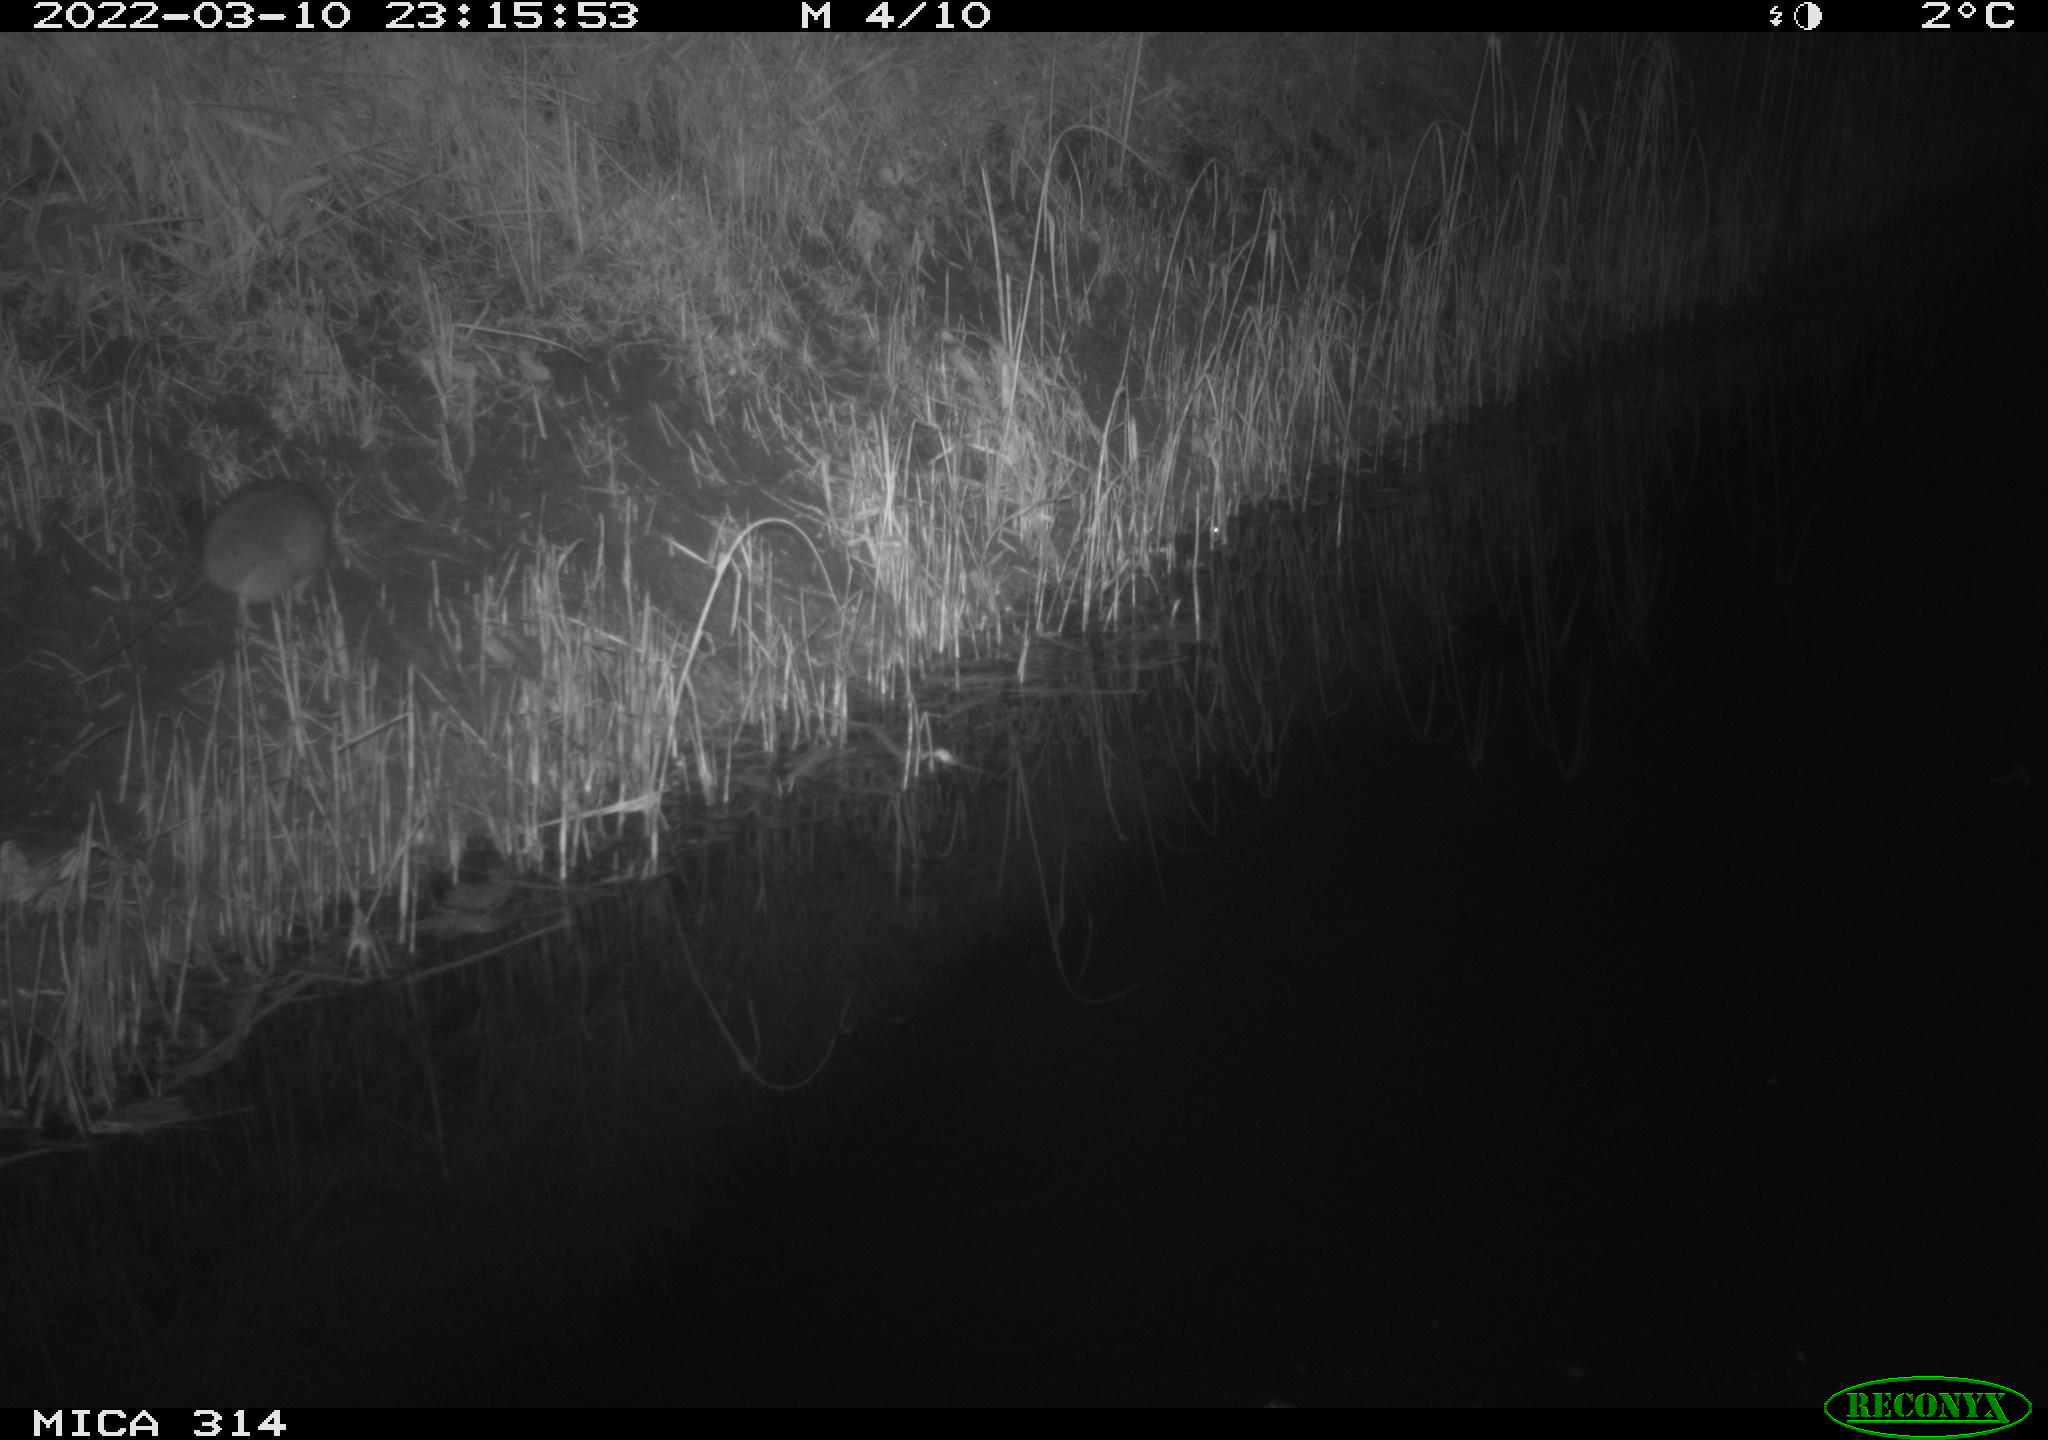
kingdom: Animalia
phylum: Chordata
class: Mammalia
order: Rodentia
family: Muridae
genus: Rattus
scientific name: Rattus norvegicus
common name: Brown rat
